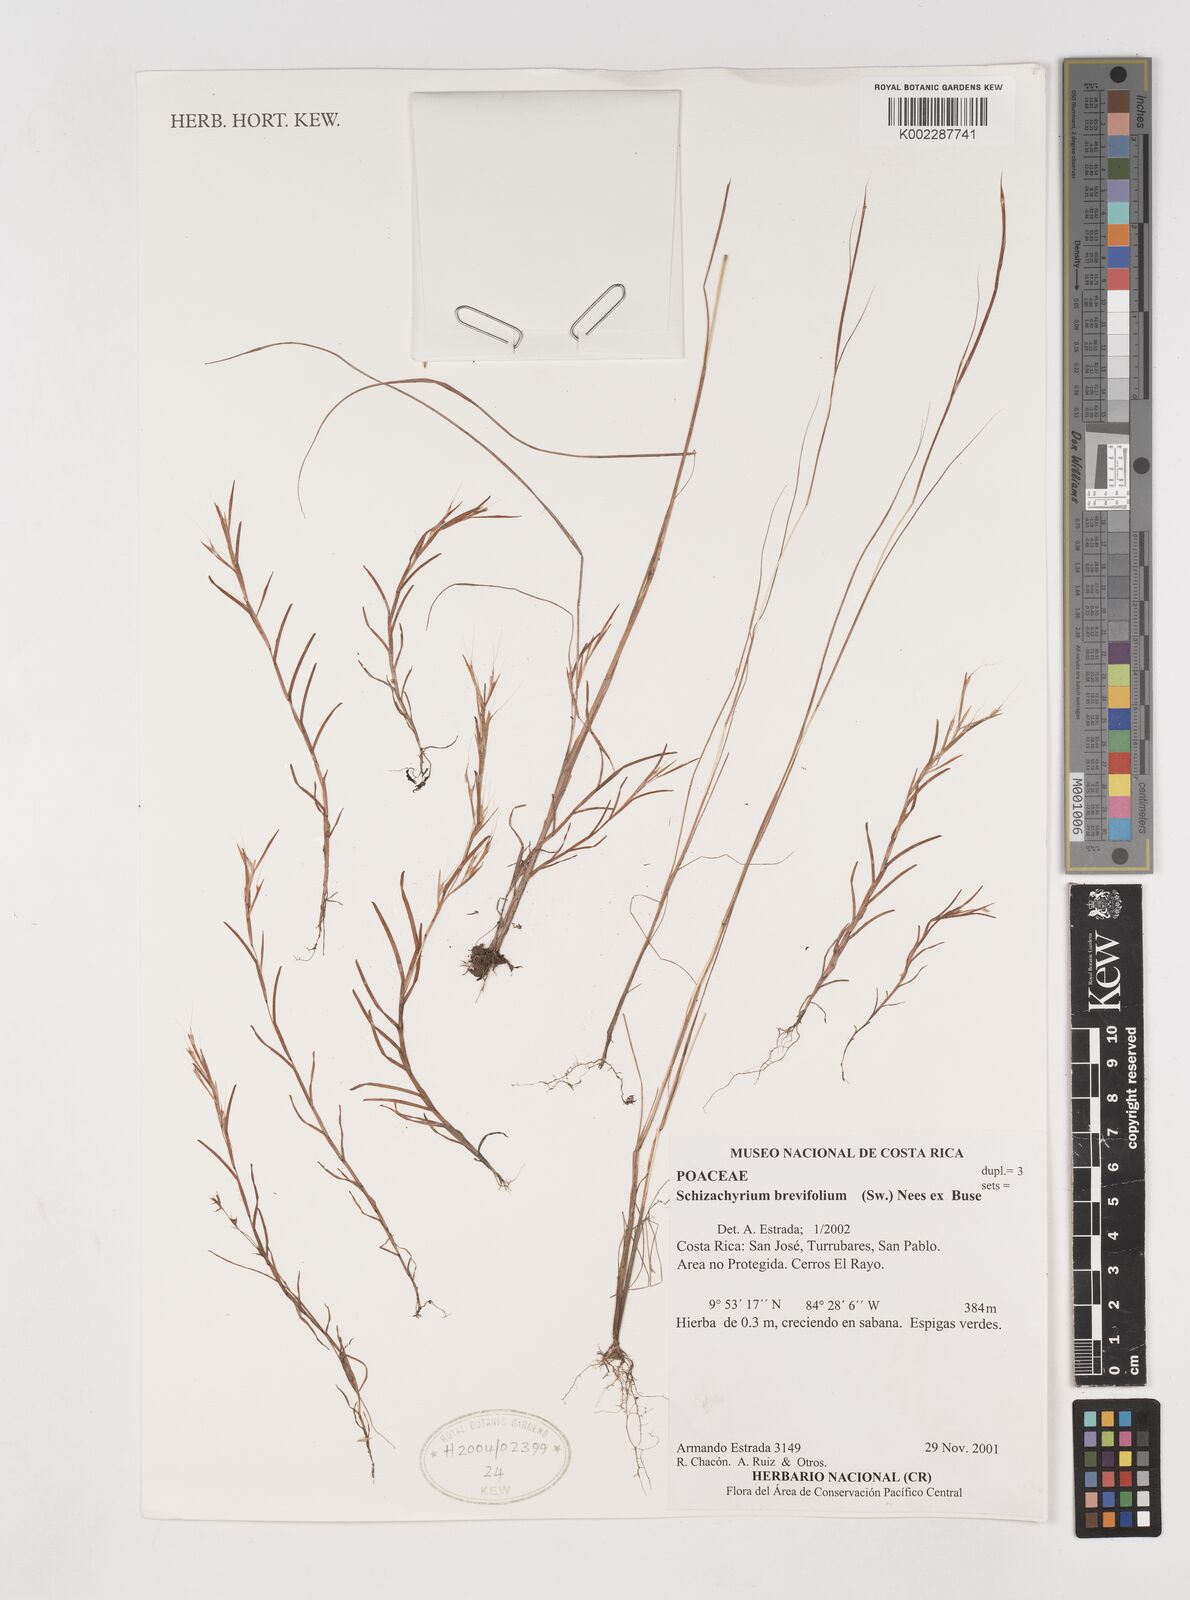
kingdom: Plantae
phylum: Tracheophyta
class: Liliopsida
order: Poales
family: Poaceae
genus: Schizachyrium
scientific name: Schizachyrium brevifolium
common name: Serillo dulce
